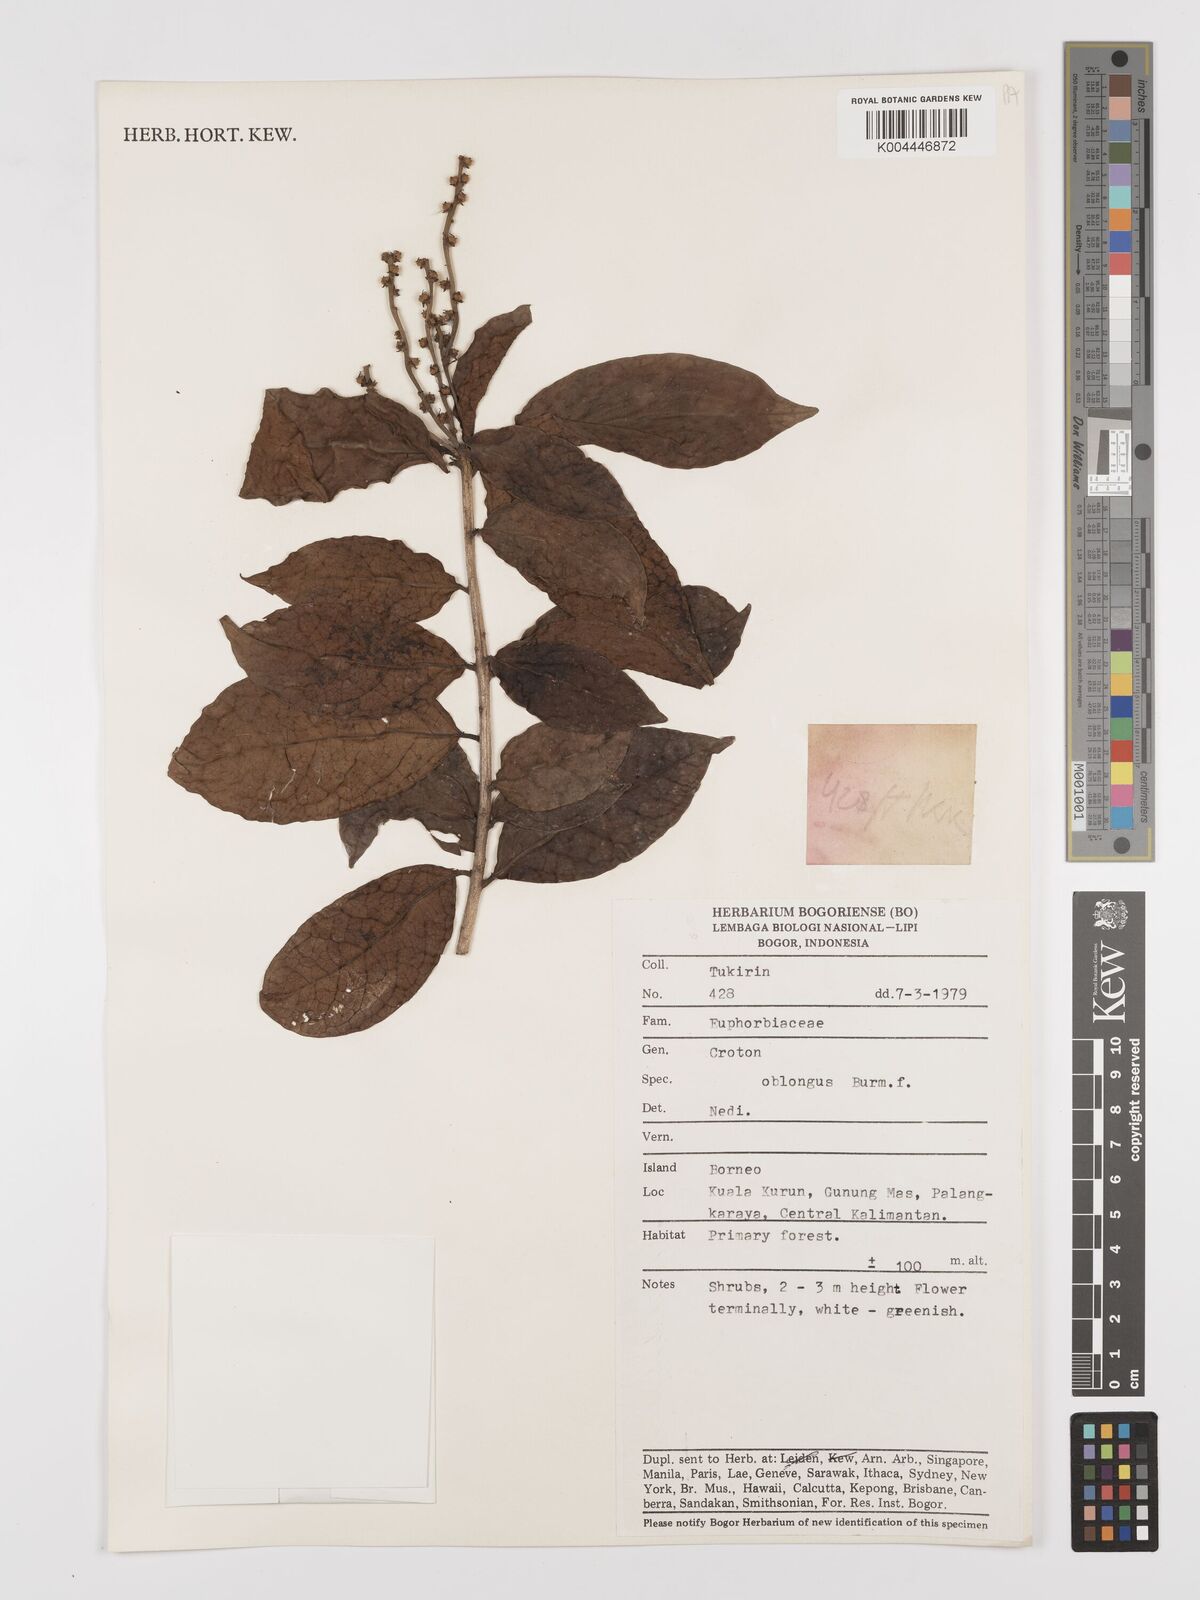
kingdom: Plantae
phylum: Tracheophyta
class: Magnoliopsida
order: Malpighiales
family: Euphorbiaceae
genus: Croton
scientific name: Croton oblongus
